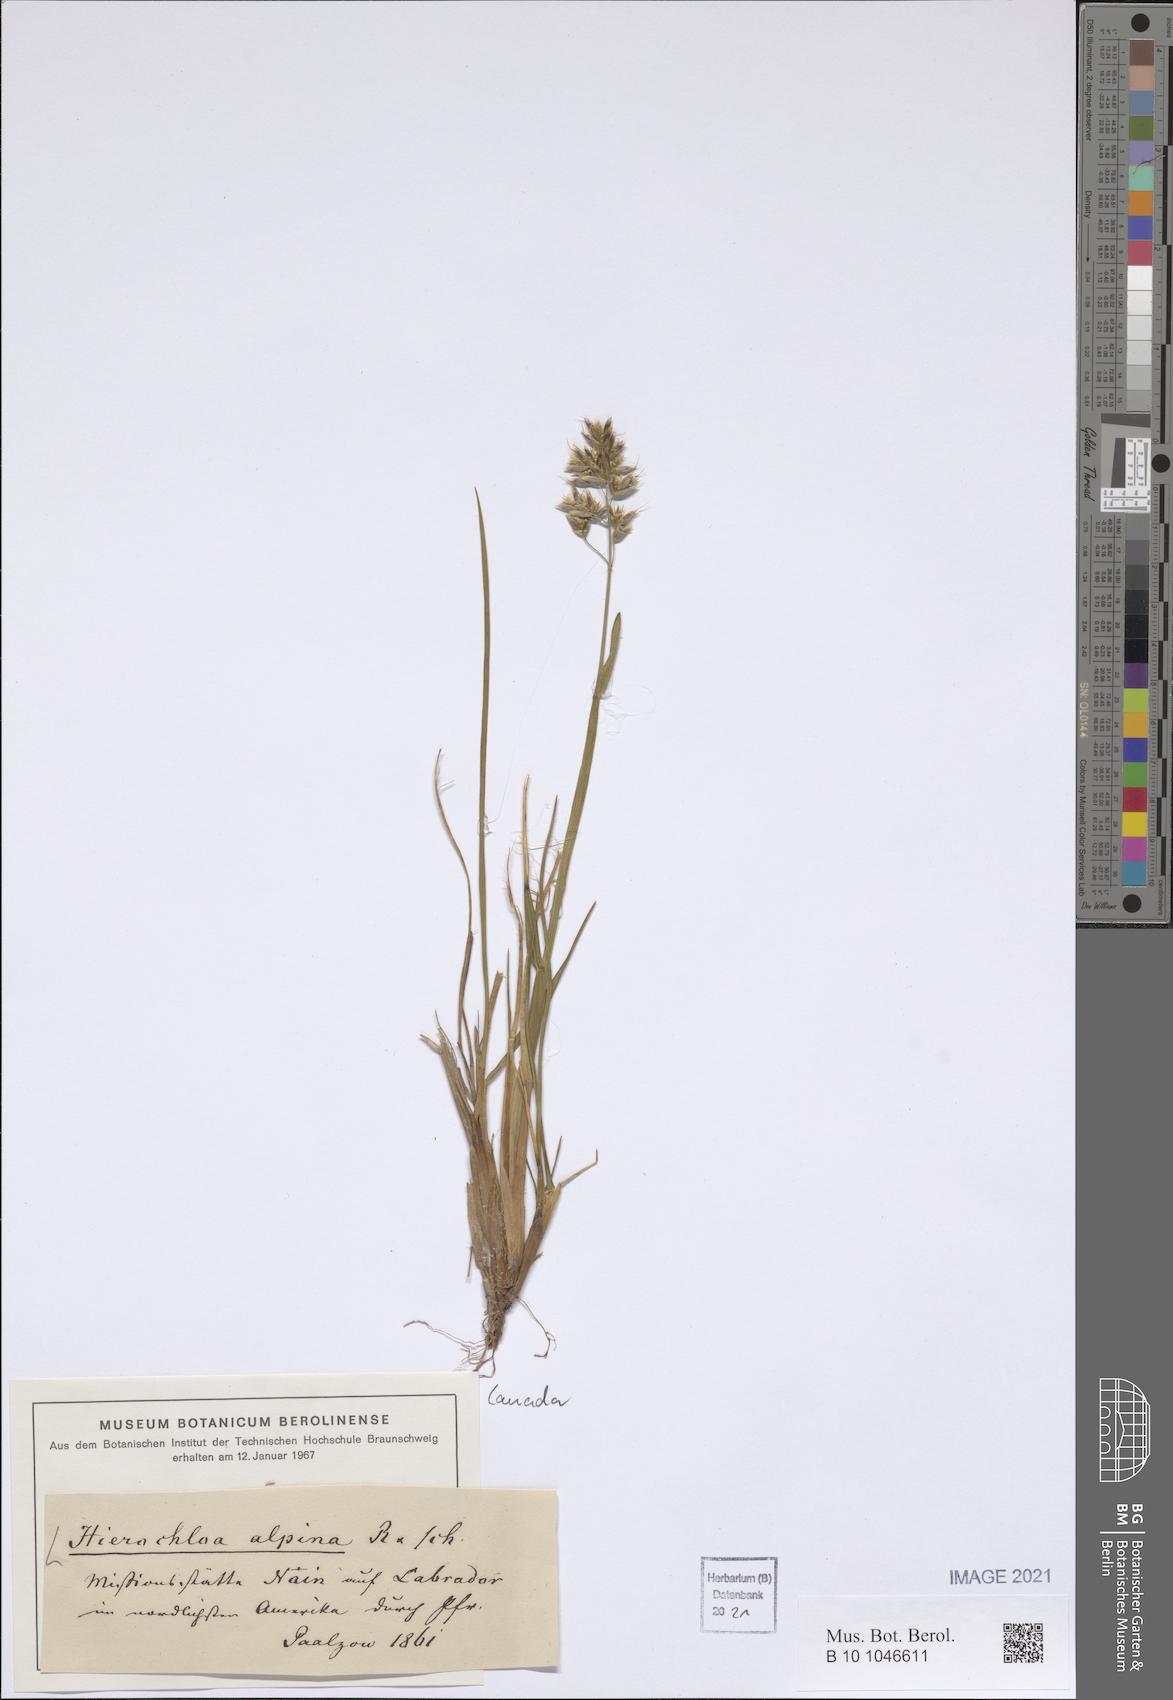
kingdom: Plantae
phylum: Tracheophyta
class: Liliopsida
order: Poales
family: Poaceae
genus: Anthoxanthum
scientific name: Anthoxanthum monticola
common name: Alpine sweetgrass
